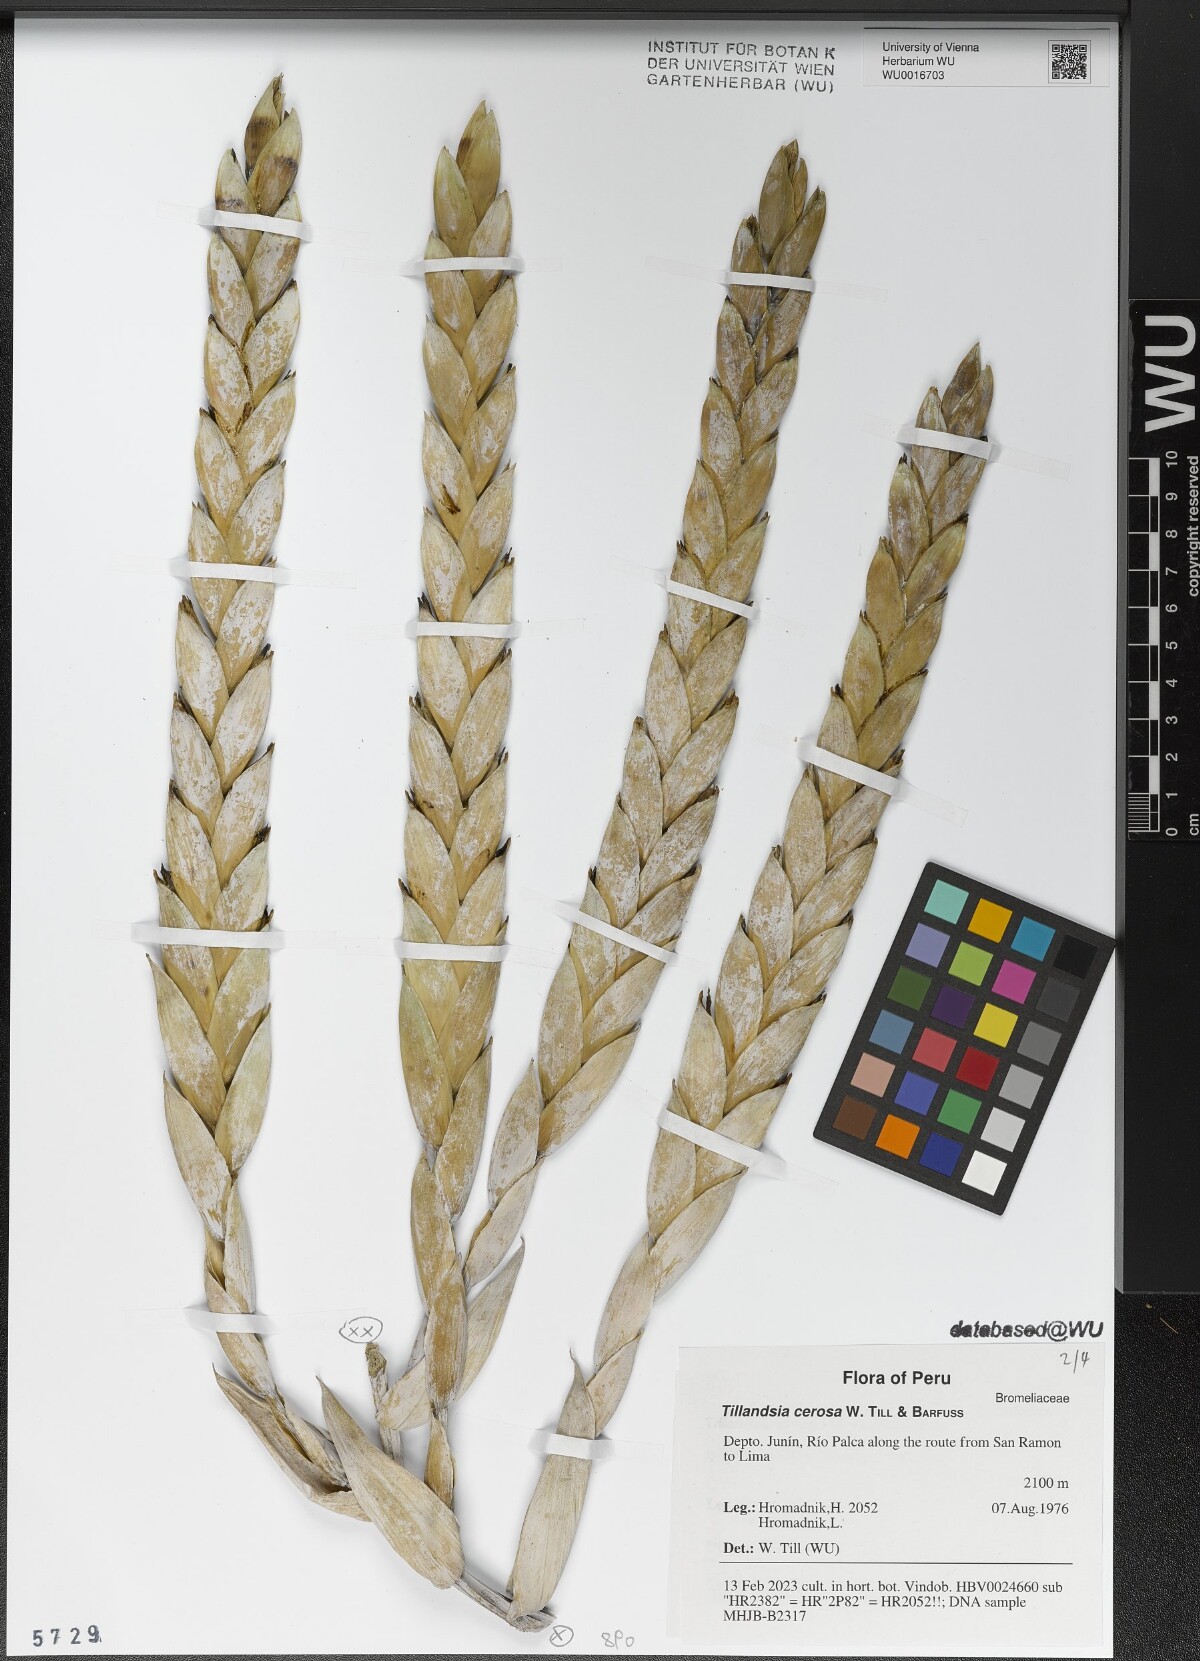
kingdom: Plantae
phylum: Tracheophyta
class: Liliopsida
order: Poales
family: Bromeliaceae
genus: Tillandsia
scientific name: Tillandsia cernua
